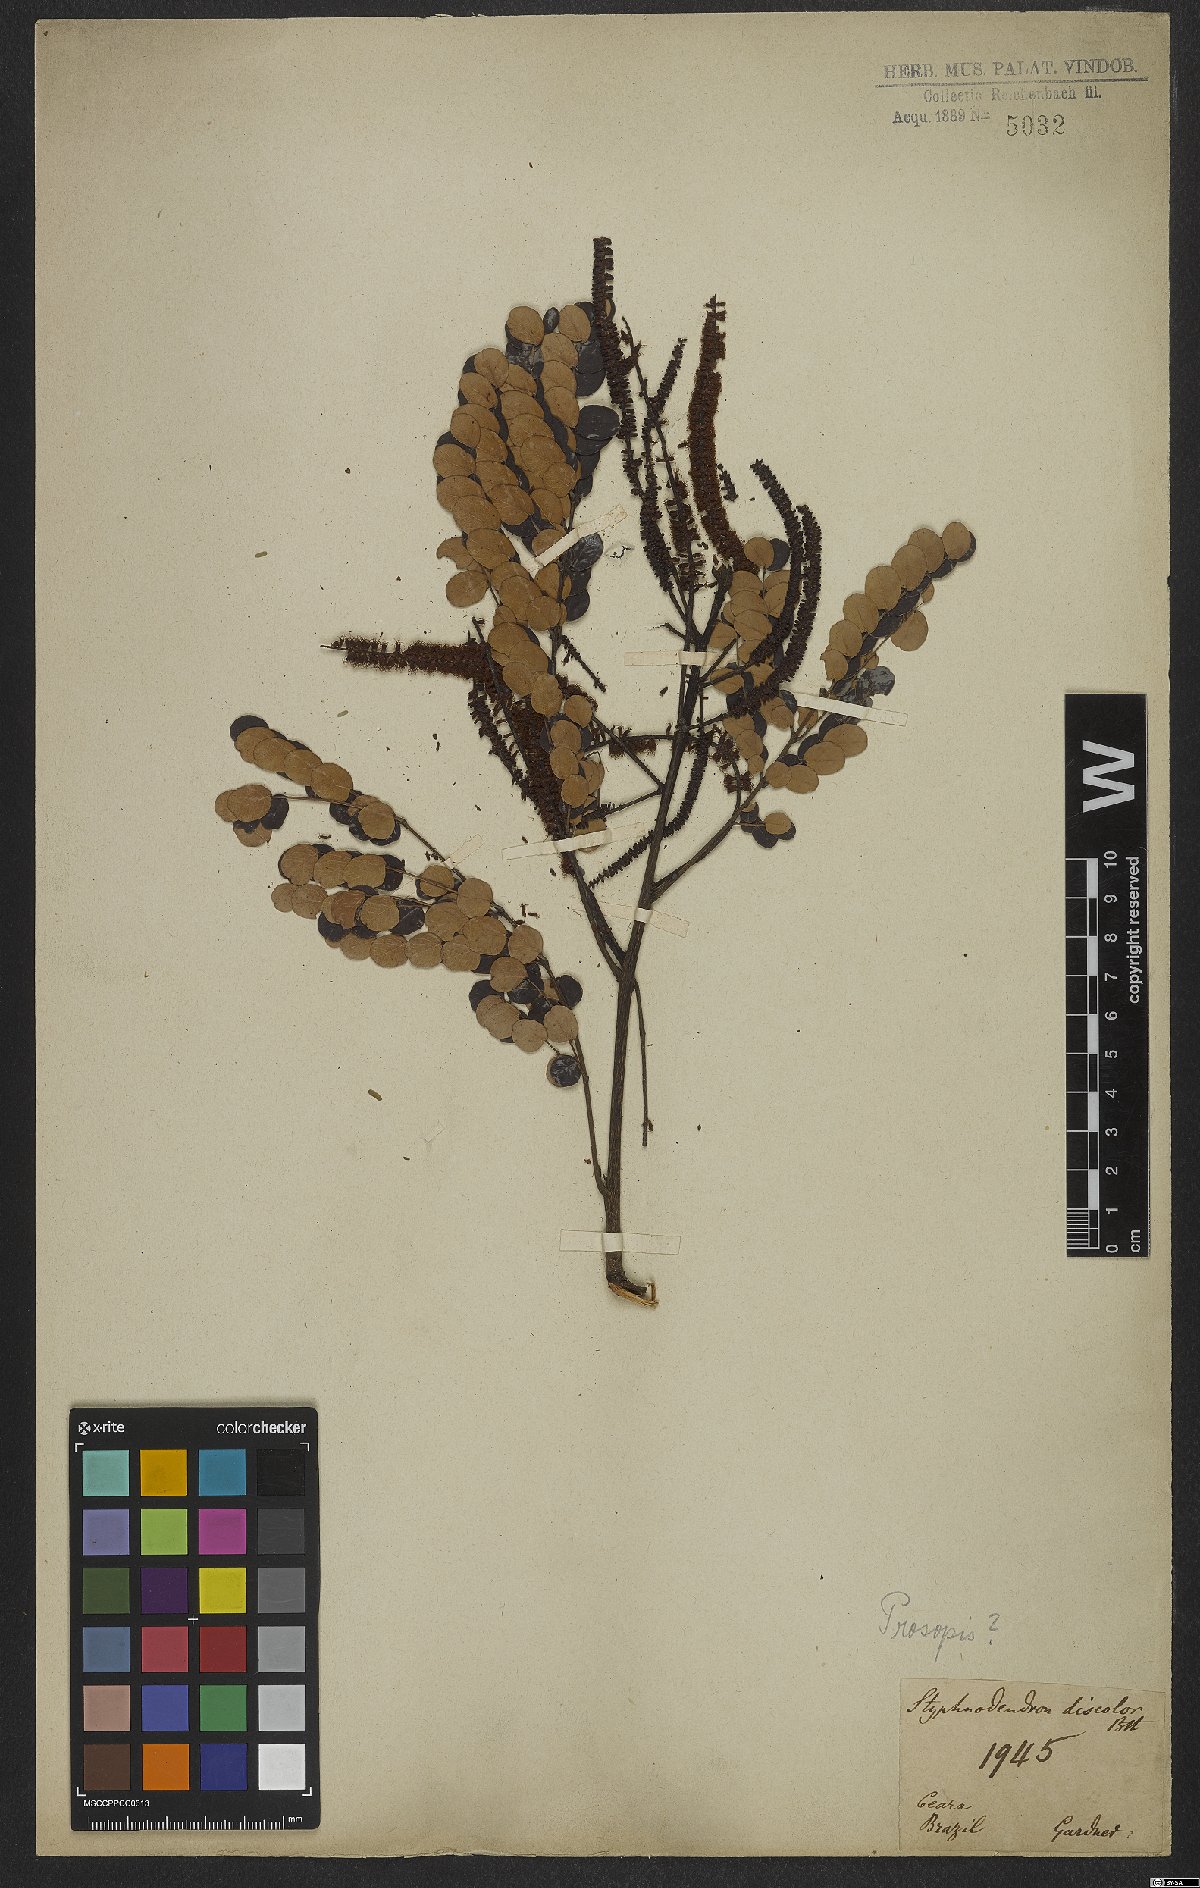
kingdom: Plantae
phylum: Tracheophyta
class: Magnoliopsida
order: Fabales
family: Fabaceae
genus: Prosopis
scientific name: Prosopis
